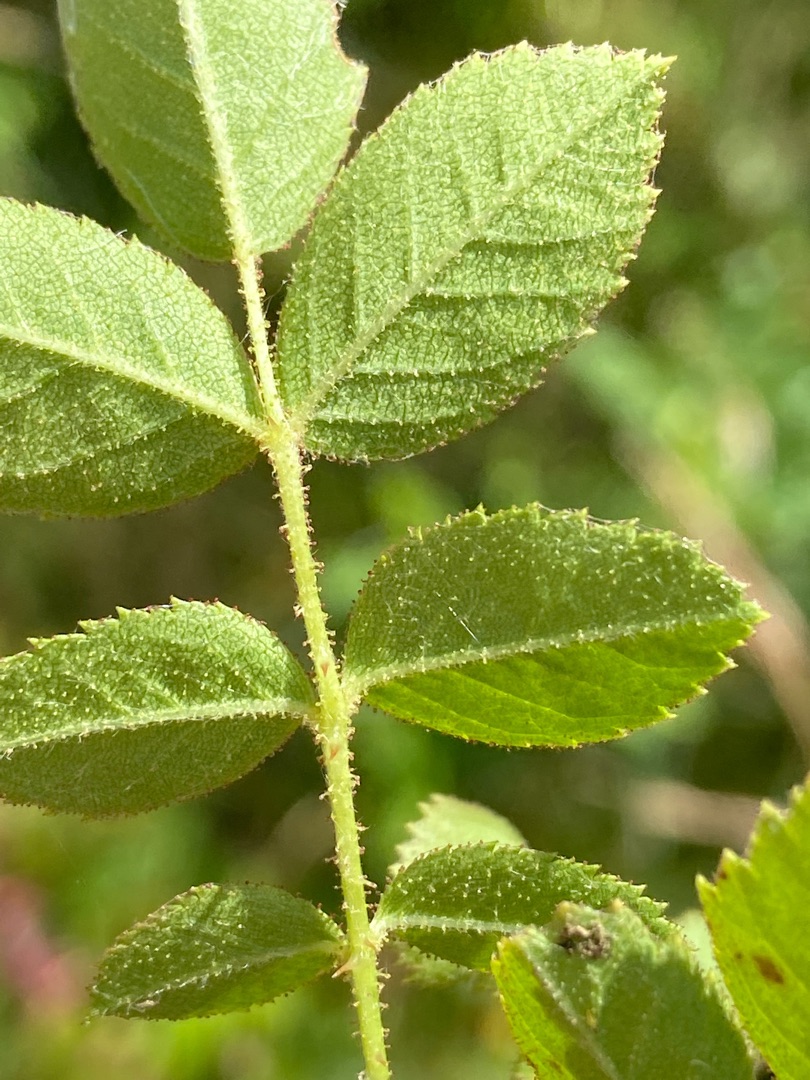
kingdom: Plantae
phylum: Tracheophyta
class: Magnoliopsida
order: Rosales
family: Rosaceae
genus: Rosa
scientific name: Rosa rubiginosa
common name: Æble-rose
